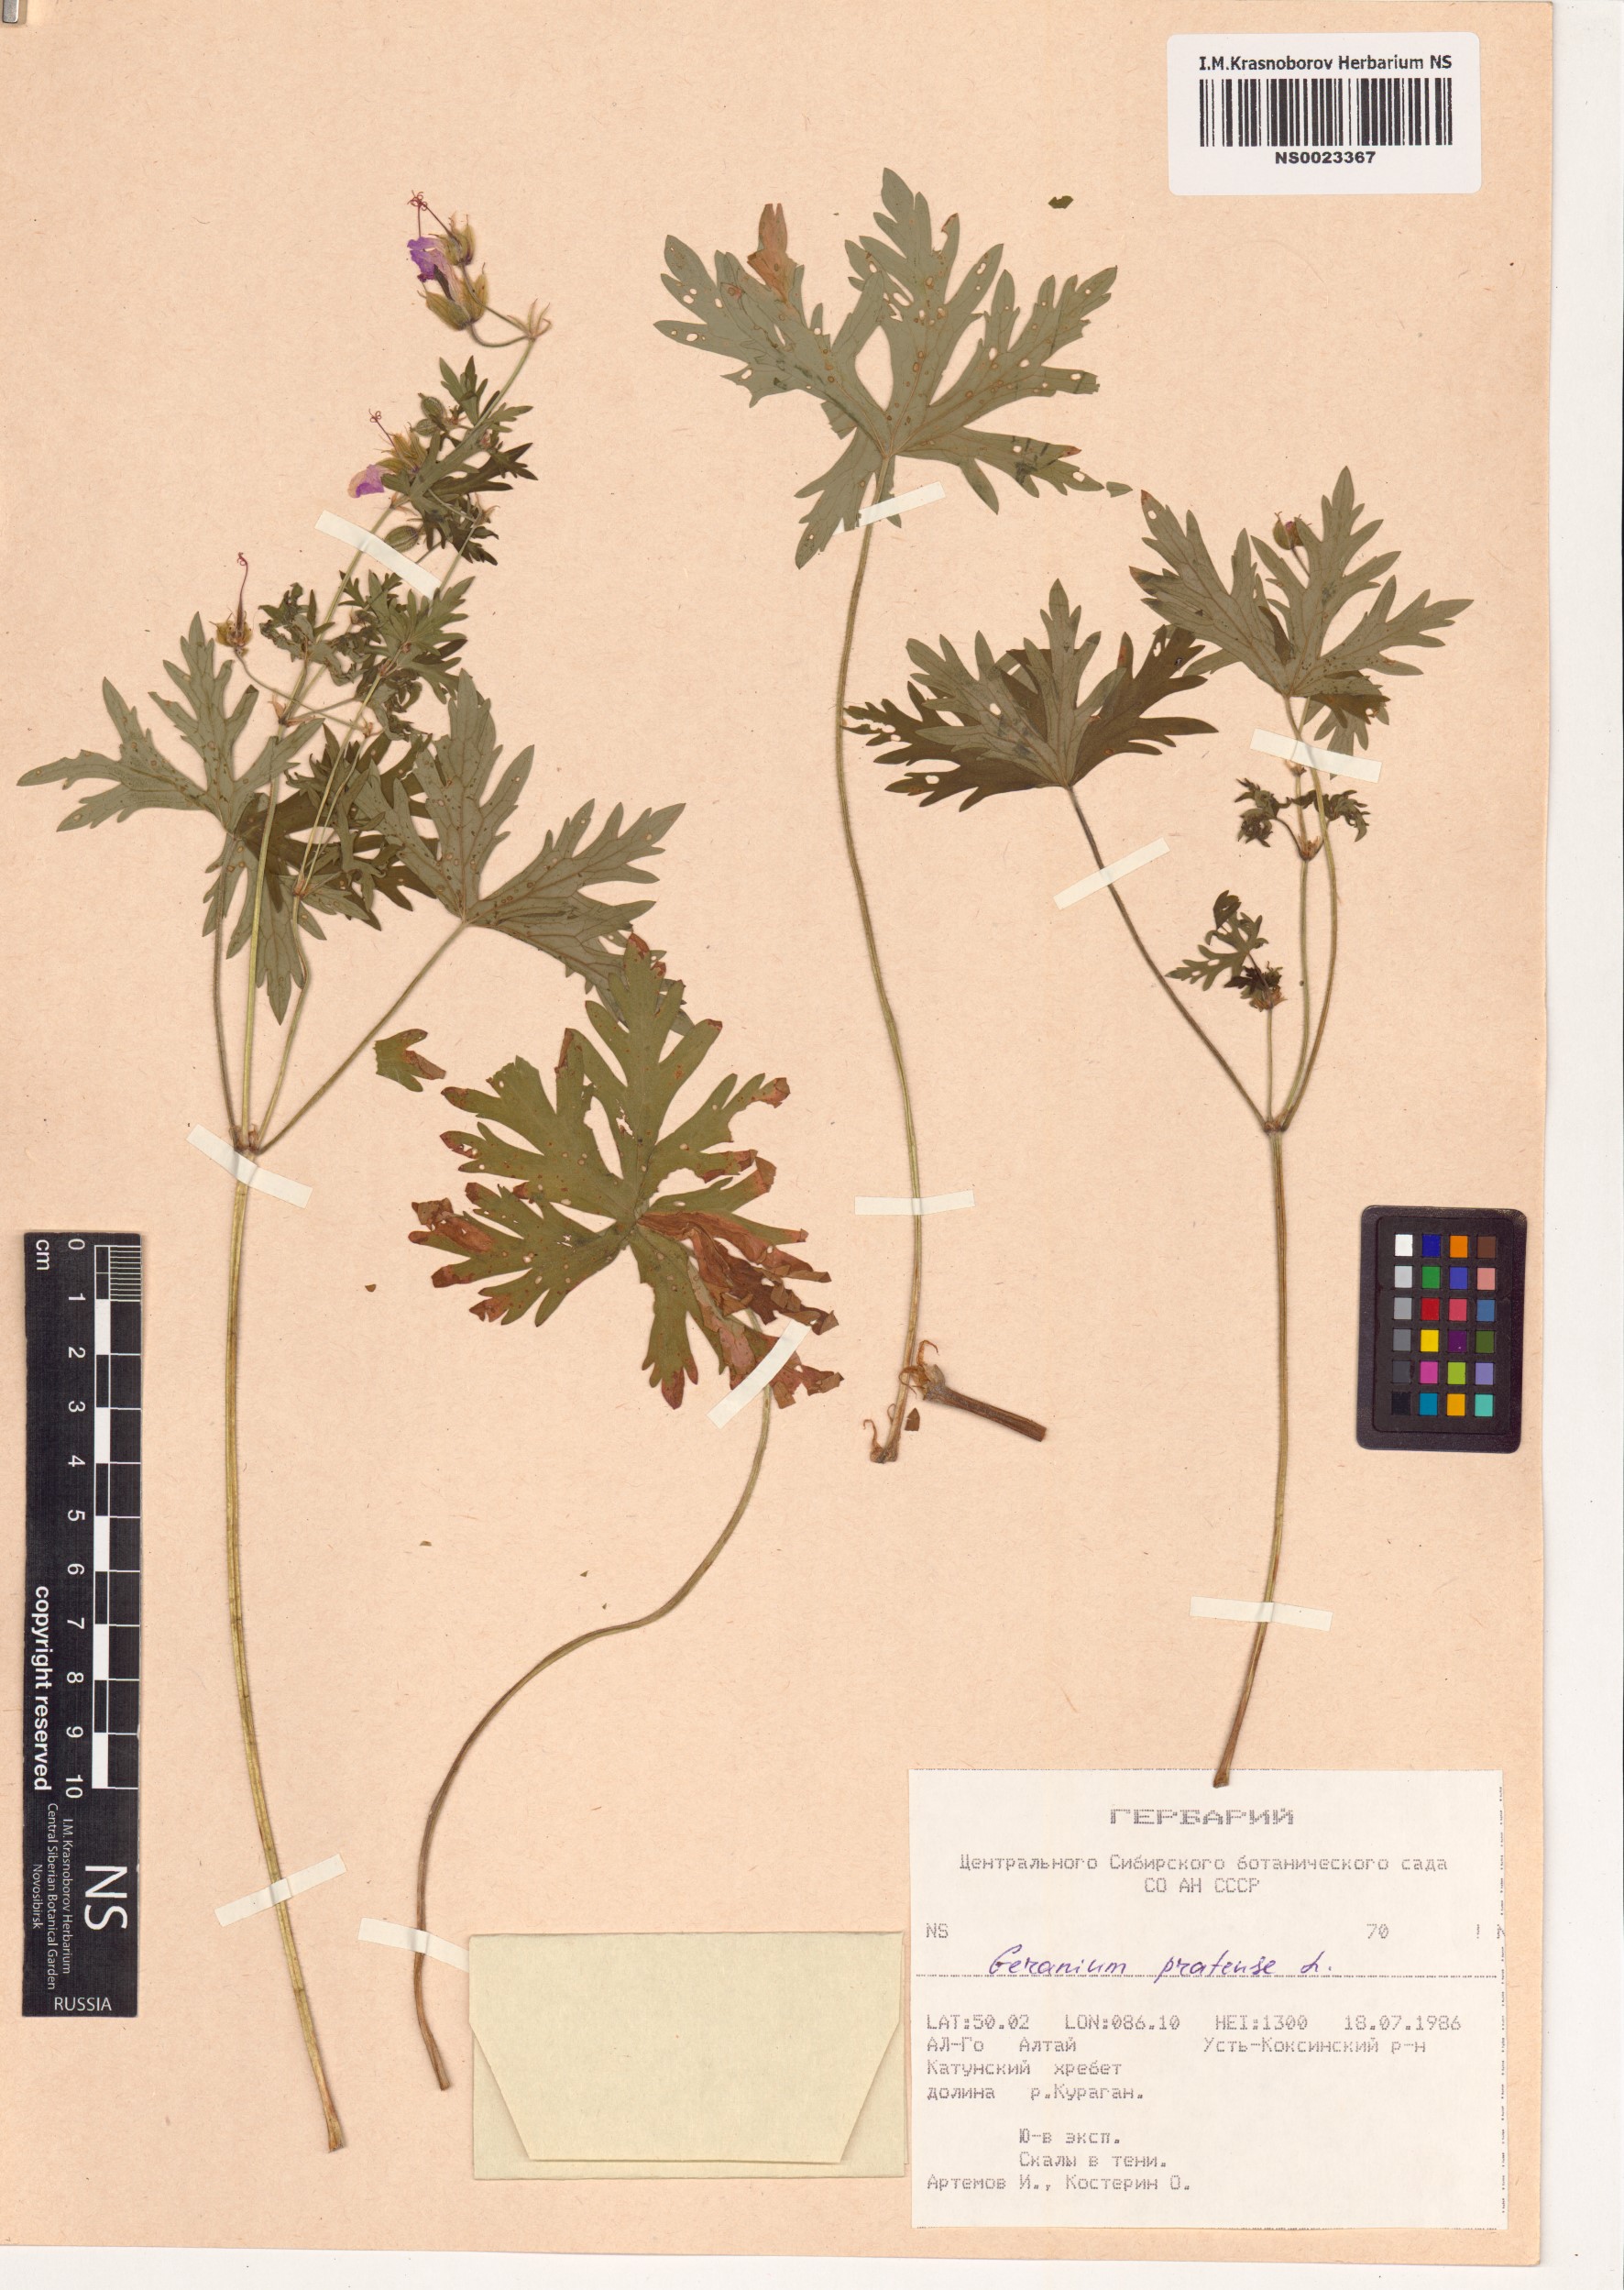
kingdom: Plantae
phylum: Tracheophyta
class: Magnoliopsida
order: Geraniales
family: Geraniaceae
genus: Geranium
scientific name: Geranium pratense
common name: Meadow crane's-bill
